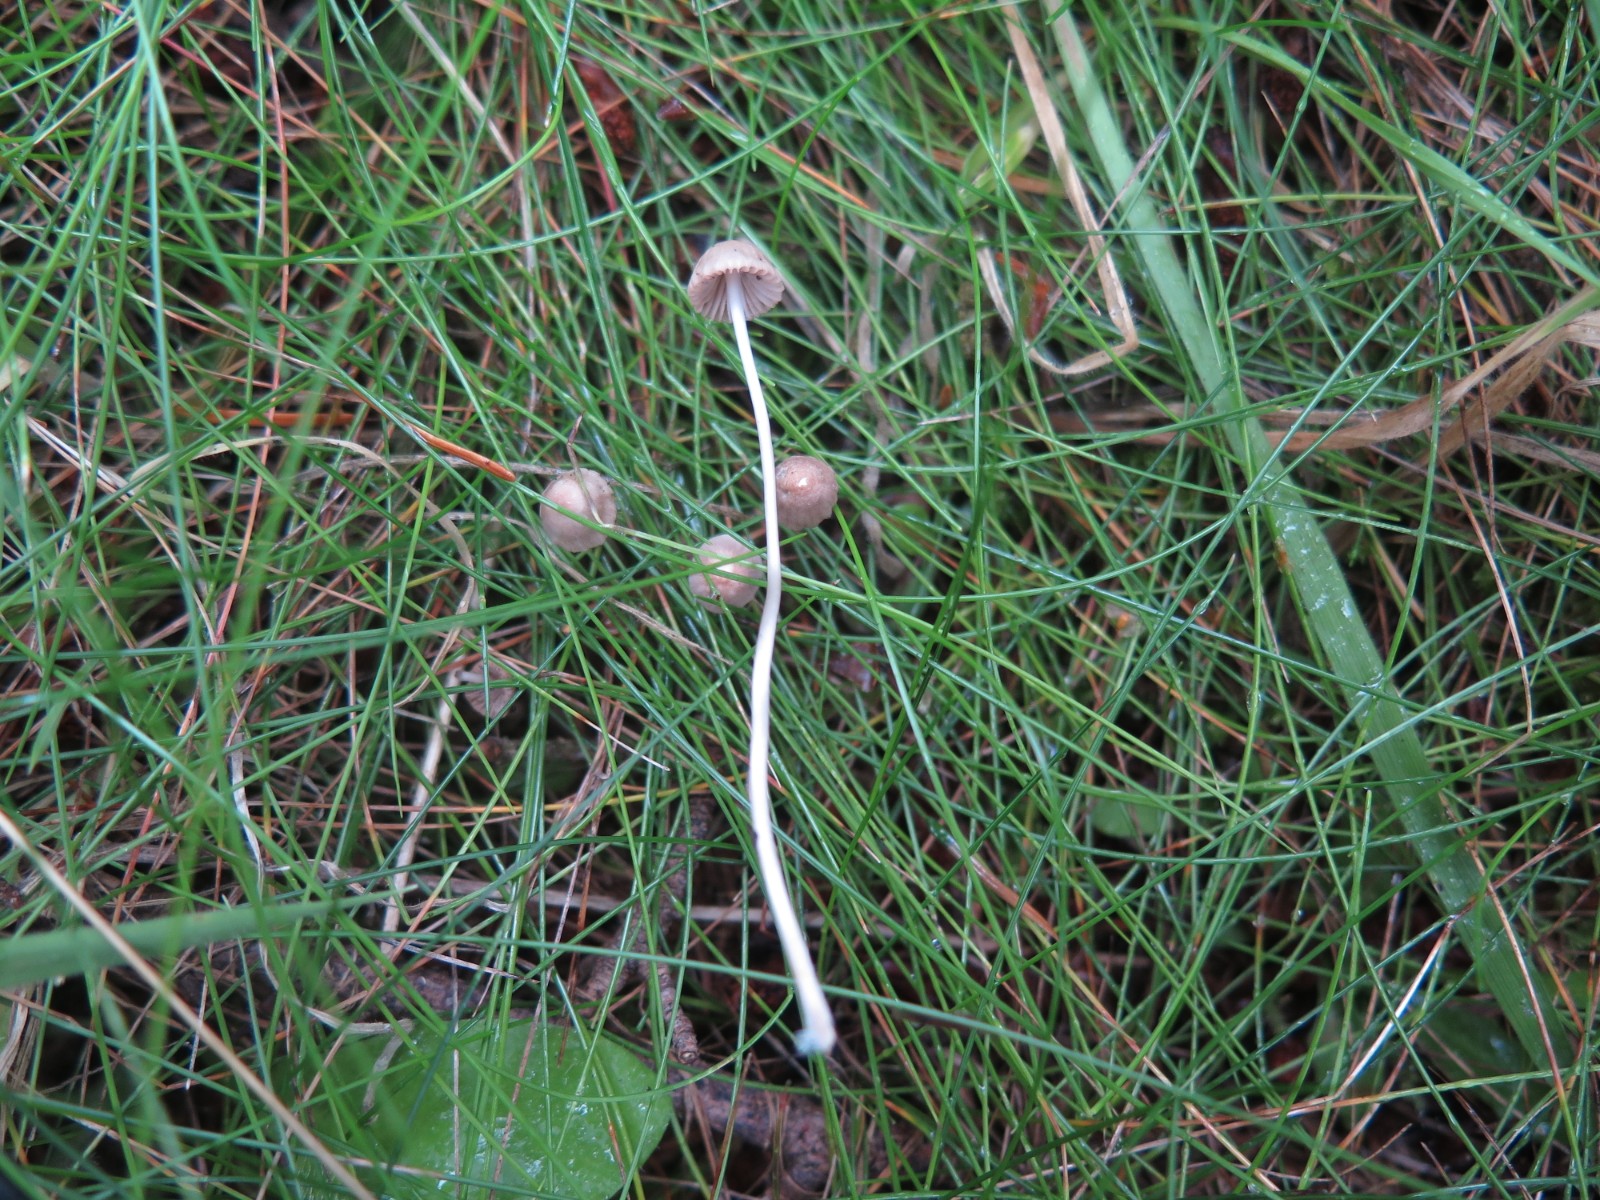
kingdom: Fungi
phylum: Basidiomycota
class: Agaricomycetes
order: Agaricales
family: Mycenaceae
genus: Mycena
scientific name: Mycena vitilis
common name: blankstokket huesvamp
